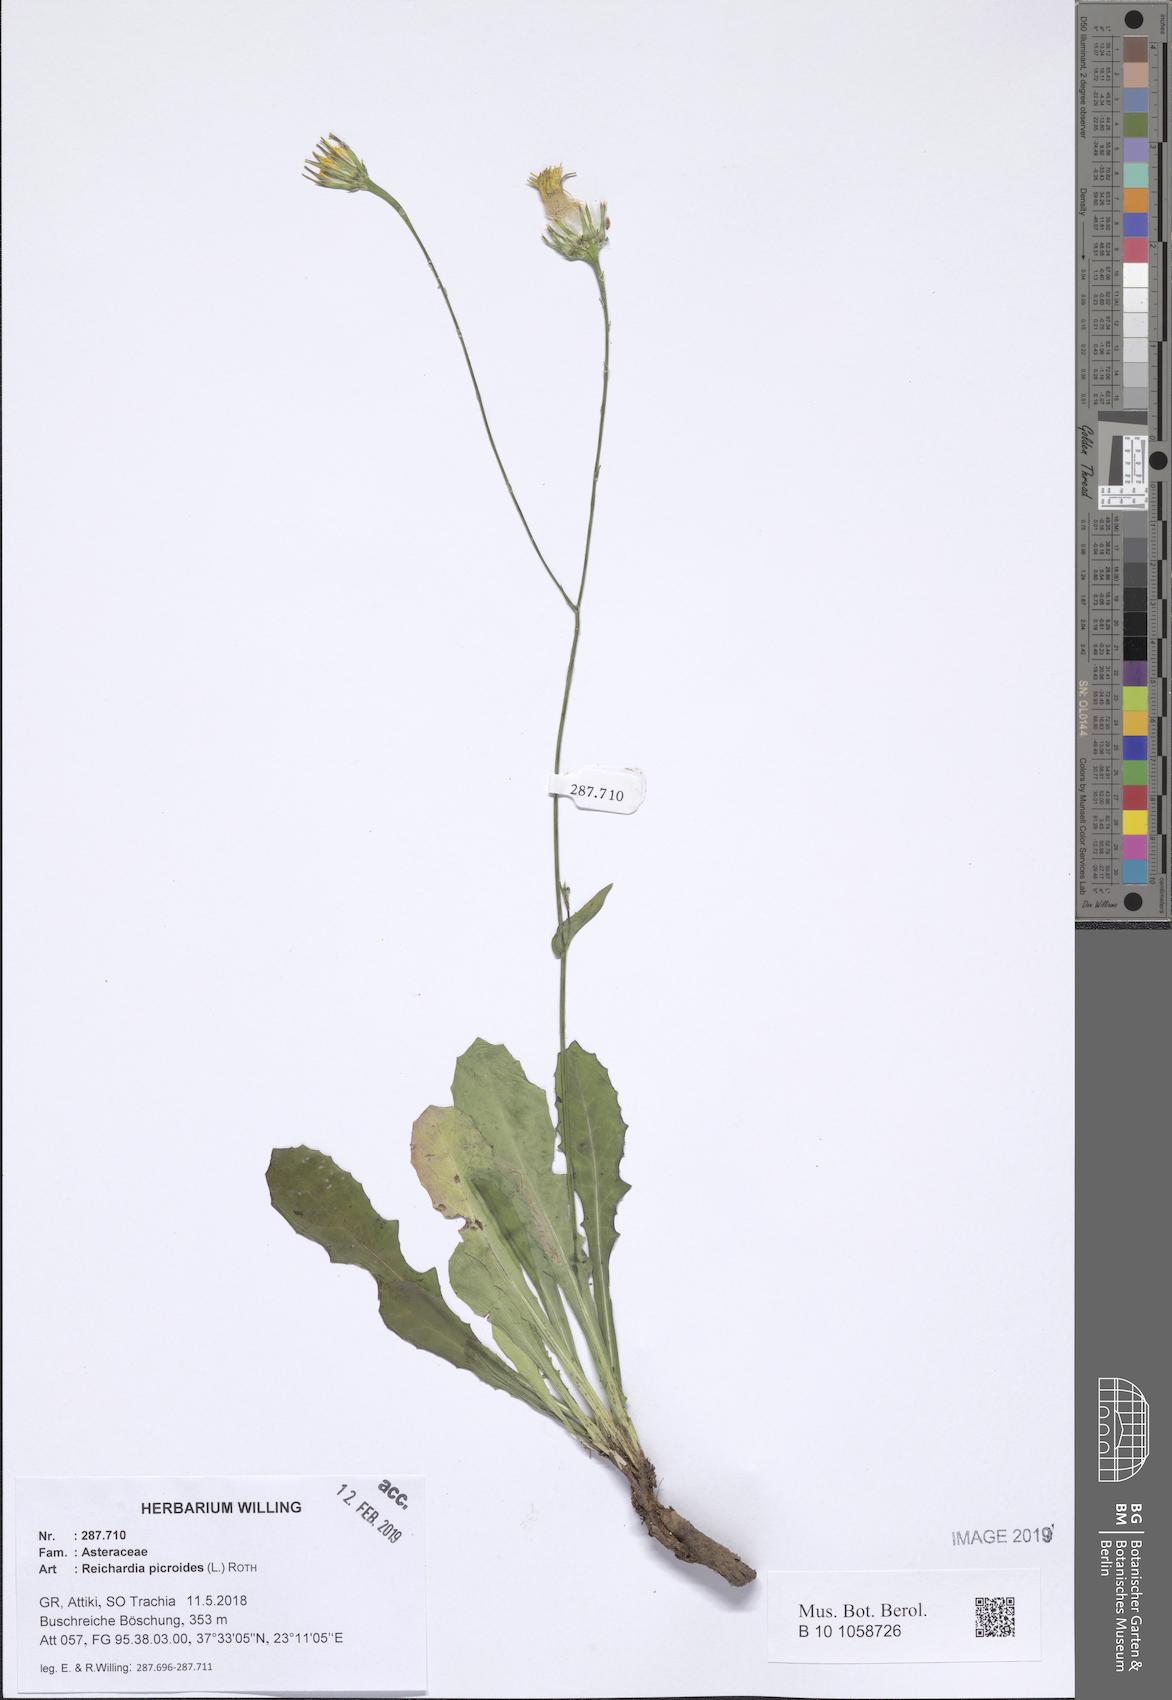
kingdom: Plantae
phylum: Tracheophyta
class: Magnoliopsida
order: Asterales
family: Asteraceae
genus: Reichardia
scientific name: Reichardia picroides
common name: Common brighteyes
